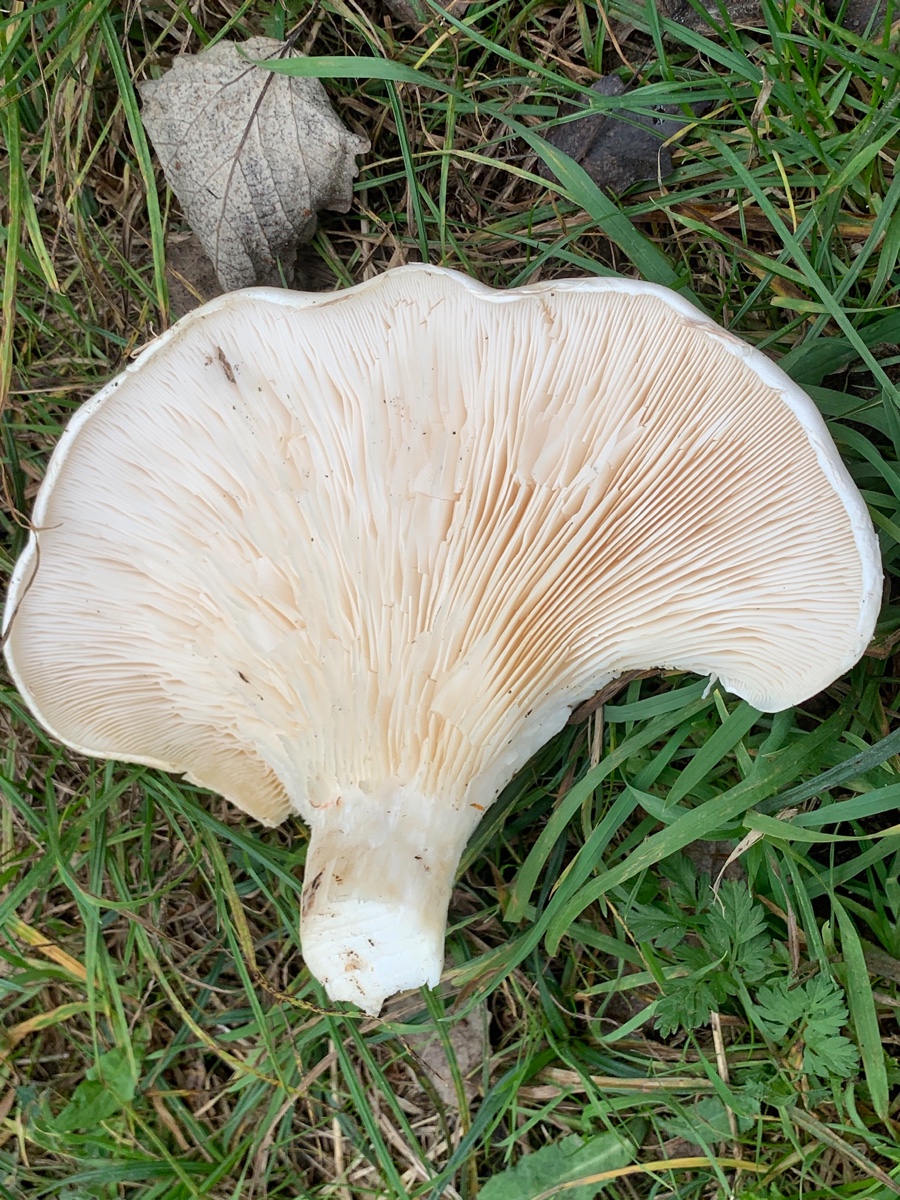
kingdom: Fungi
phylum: Basidiomycota
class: Agaricomycetes
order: Agaricales
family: Pleurotaceae
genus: Pleurotus
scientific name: Pleurotus dryinus
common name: korkagtig østershat
